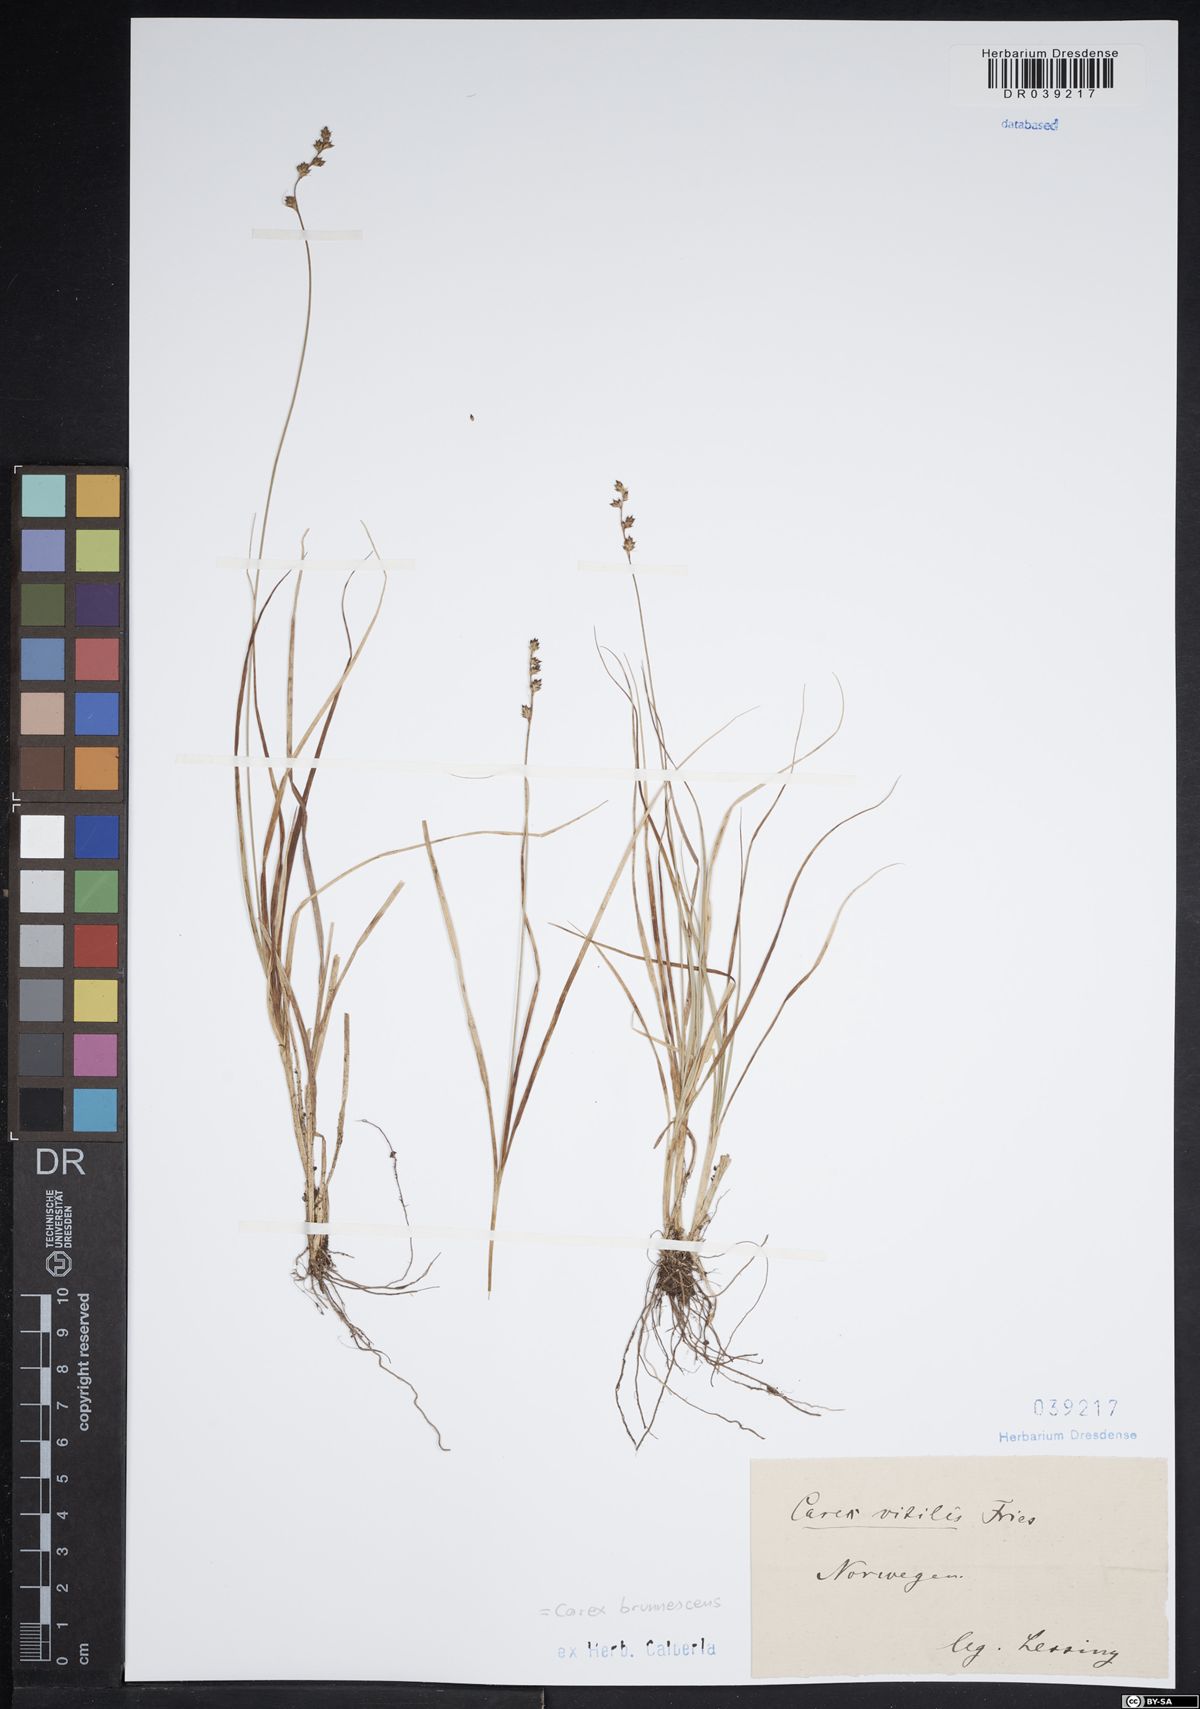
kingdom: Plantae
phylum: Tracheophyta
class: Liliopsida
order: Poales
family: Cyperaceae
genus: Carex
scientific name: Carex brunnescens
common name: Brown sedge
